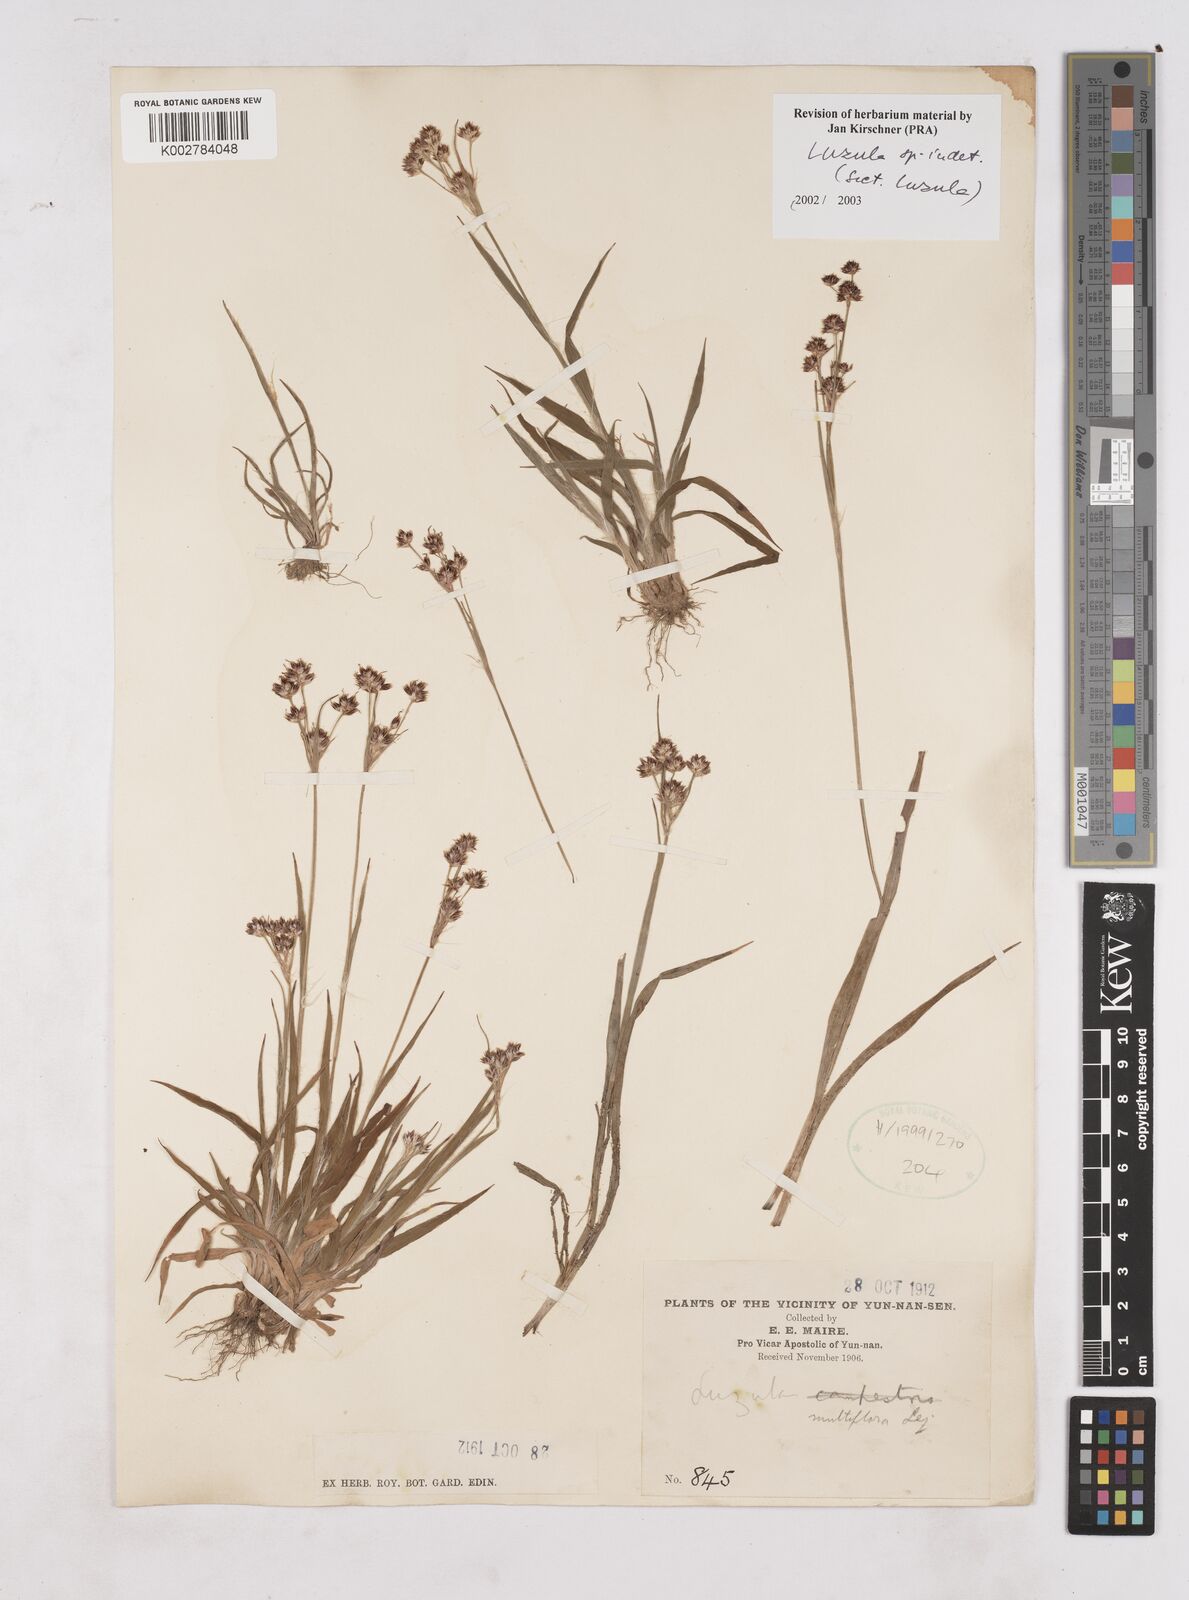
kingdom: Plantae
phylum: Tracheophyta
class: Liliopsida
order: Poales
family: Juncaceae
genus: Luzula
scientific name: Luzula
